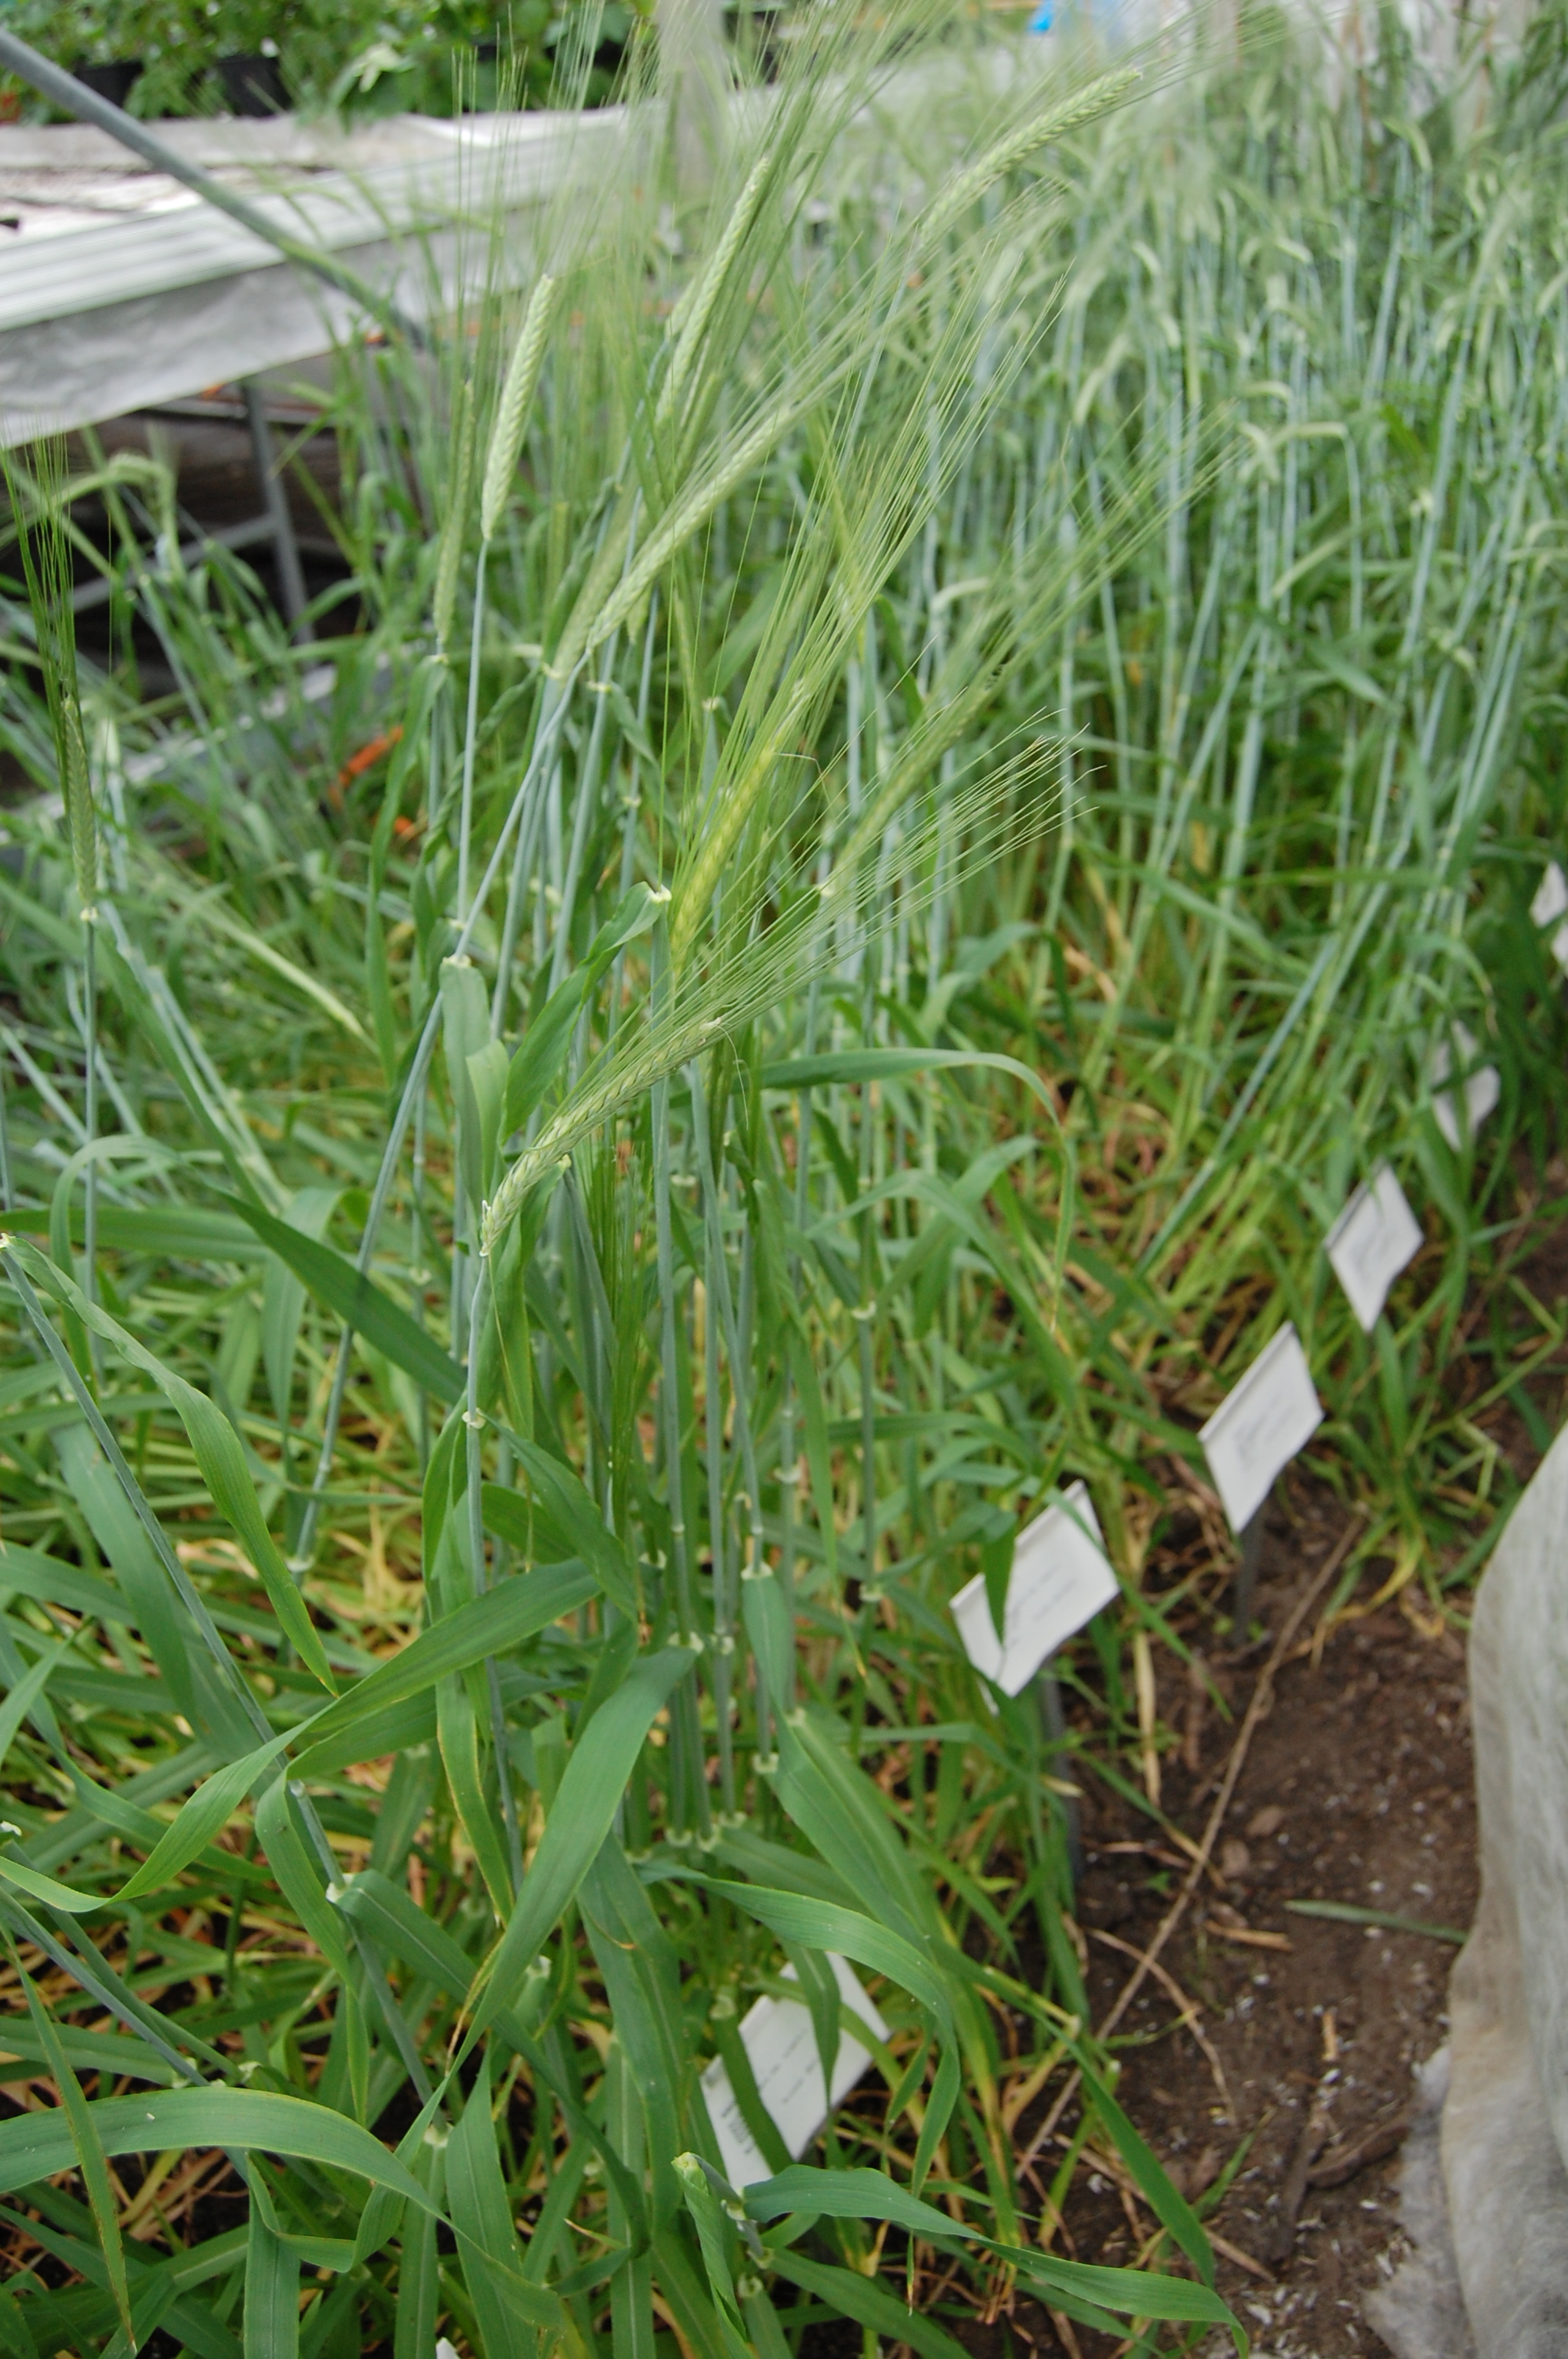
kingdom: Plantae
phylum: Tracheophyta
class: Liliopsida
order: Poales
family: Poaceae
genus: Hordeum
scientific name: Hordeum vulgare
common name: Common barley
